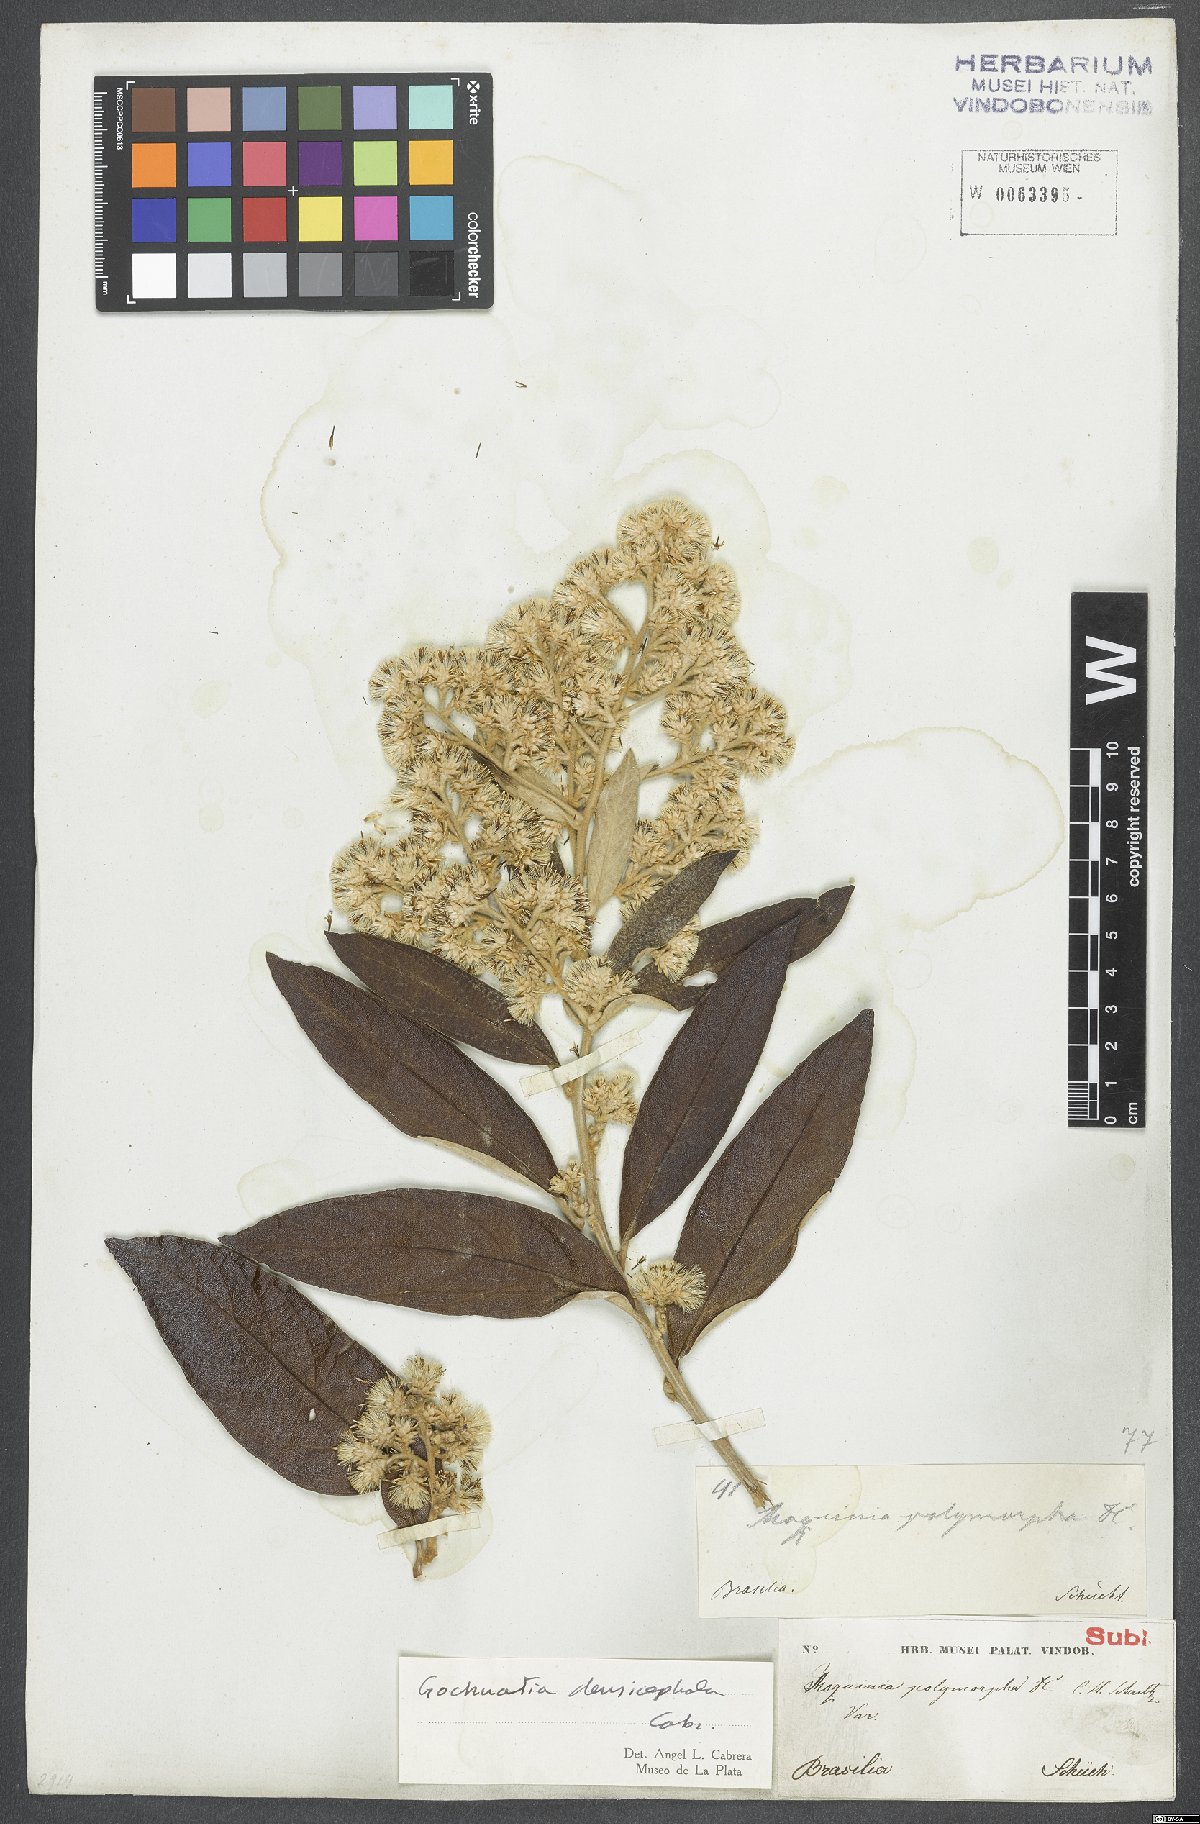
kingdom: Plantae
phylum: Tracheophyta
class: Magnoliopsida
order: Asterales
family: Asteraceae
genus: Moquiniastrum
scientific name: Moquiniastrum densicephalum
